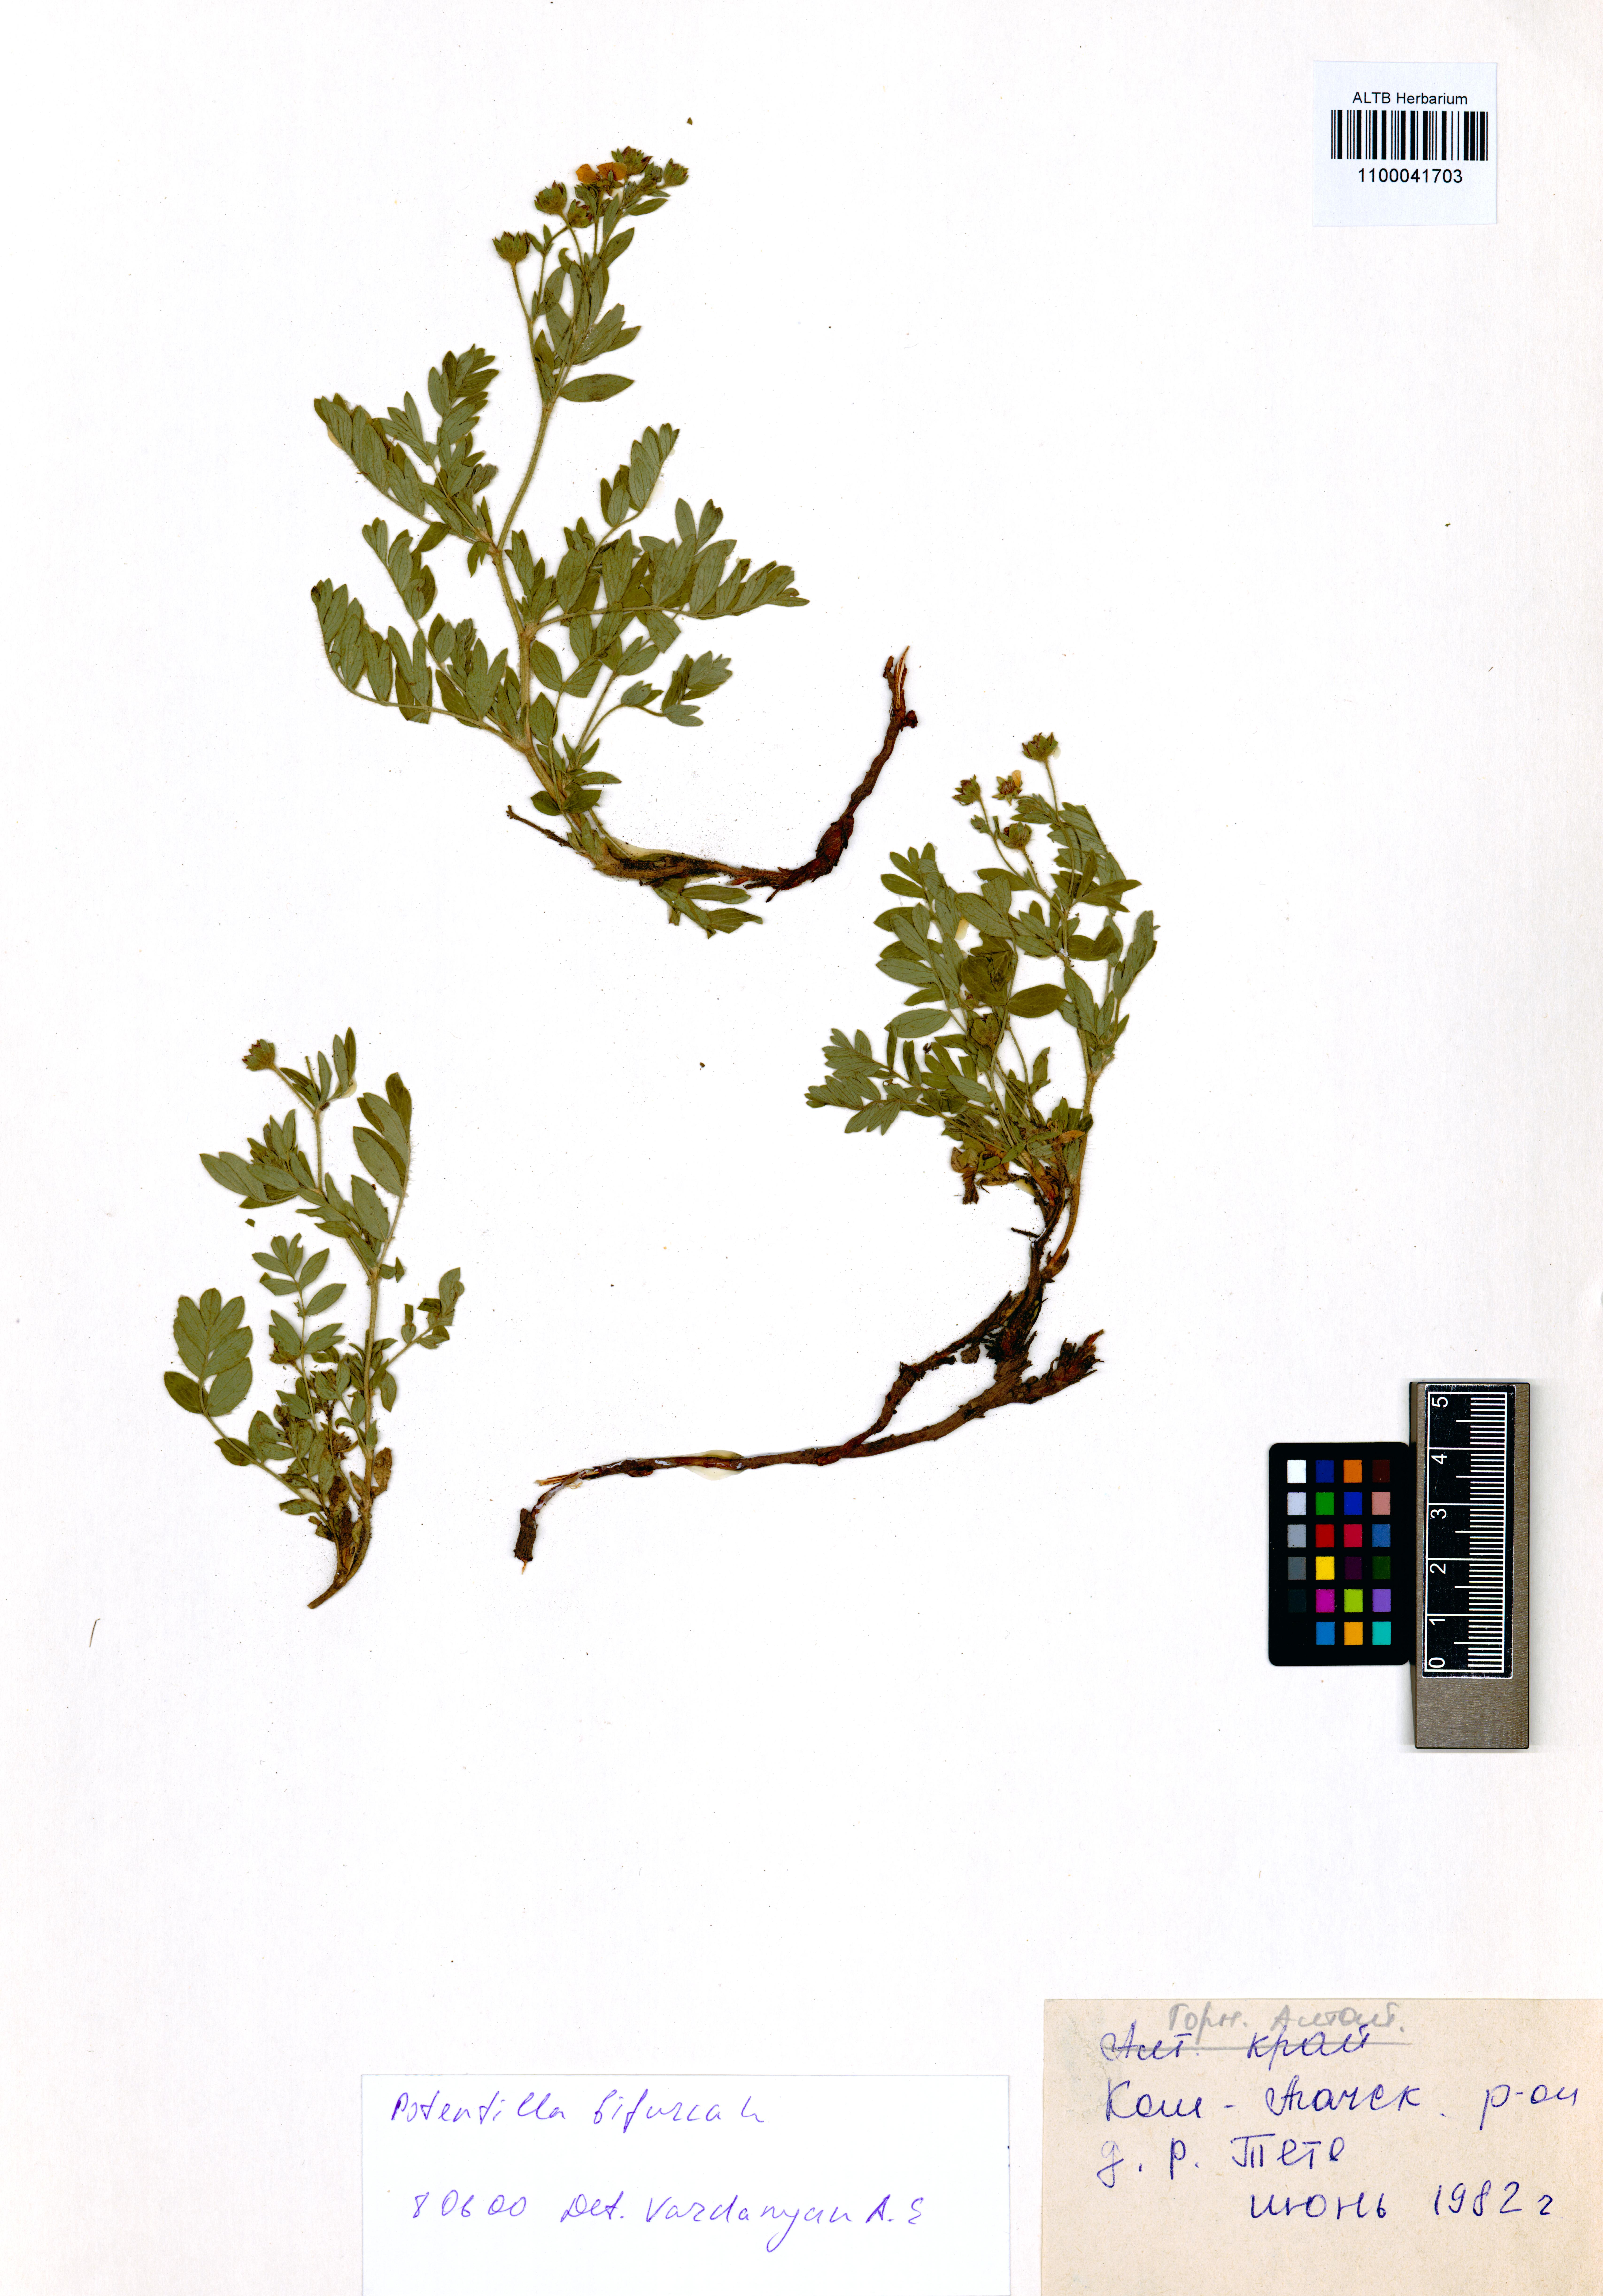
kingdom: Plantae
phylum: Tracheophyta
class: Magnoliopsida
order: Rosales
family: Rosaceae
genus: Sibbaldianthe
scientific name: Sibbaldianthe bifurca
